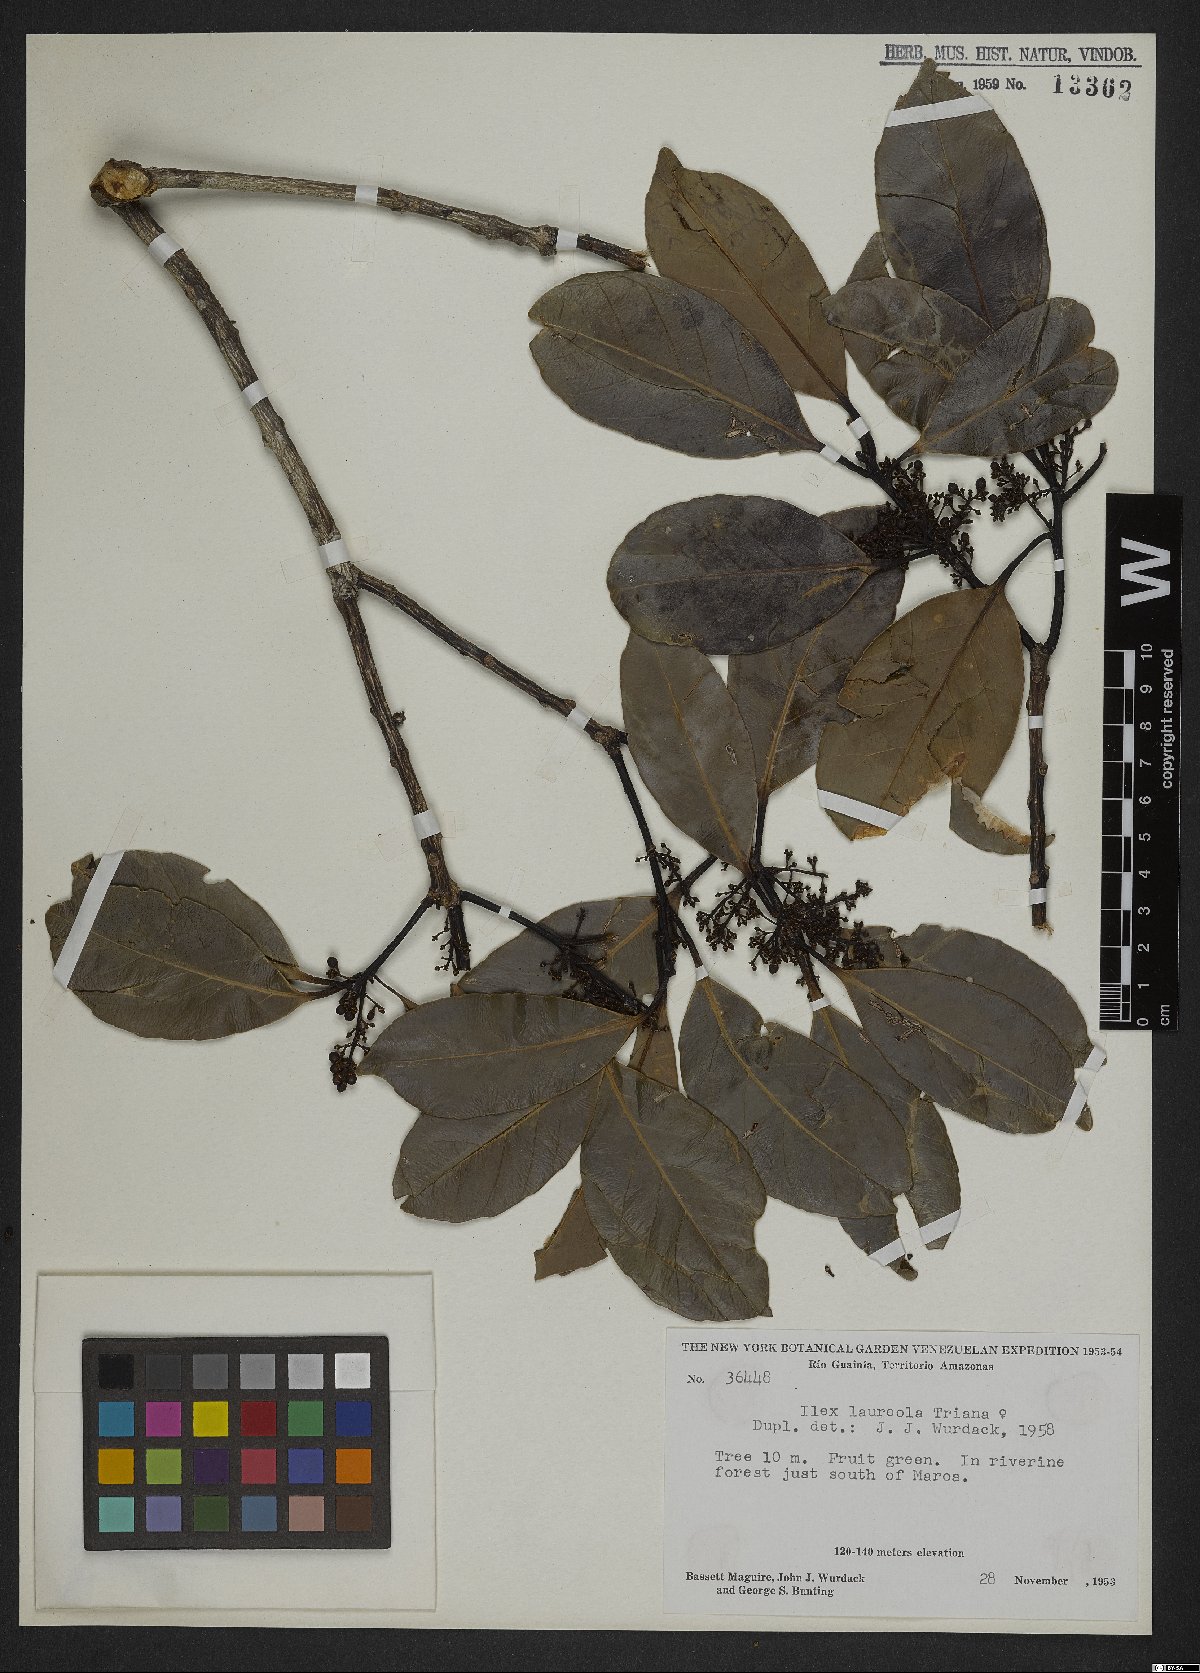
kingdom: Plantae
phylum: Tracheophyta
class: Magnoliopsida
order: Aquifoliales
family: Aquifoliaceae
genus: Ilex
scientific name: Ilex laureola
